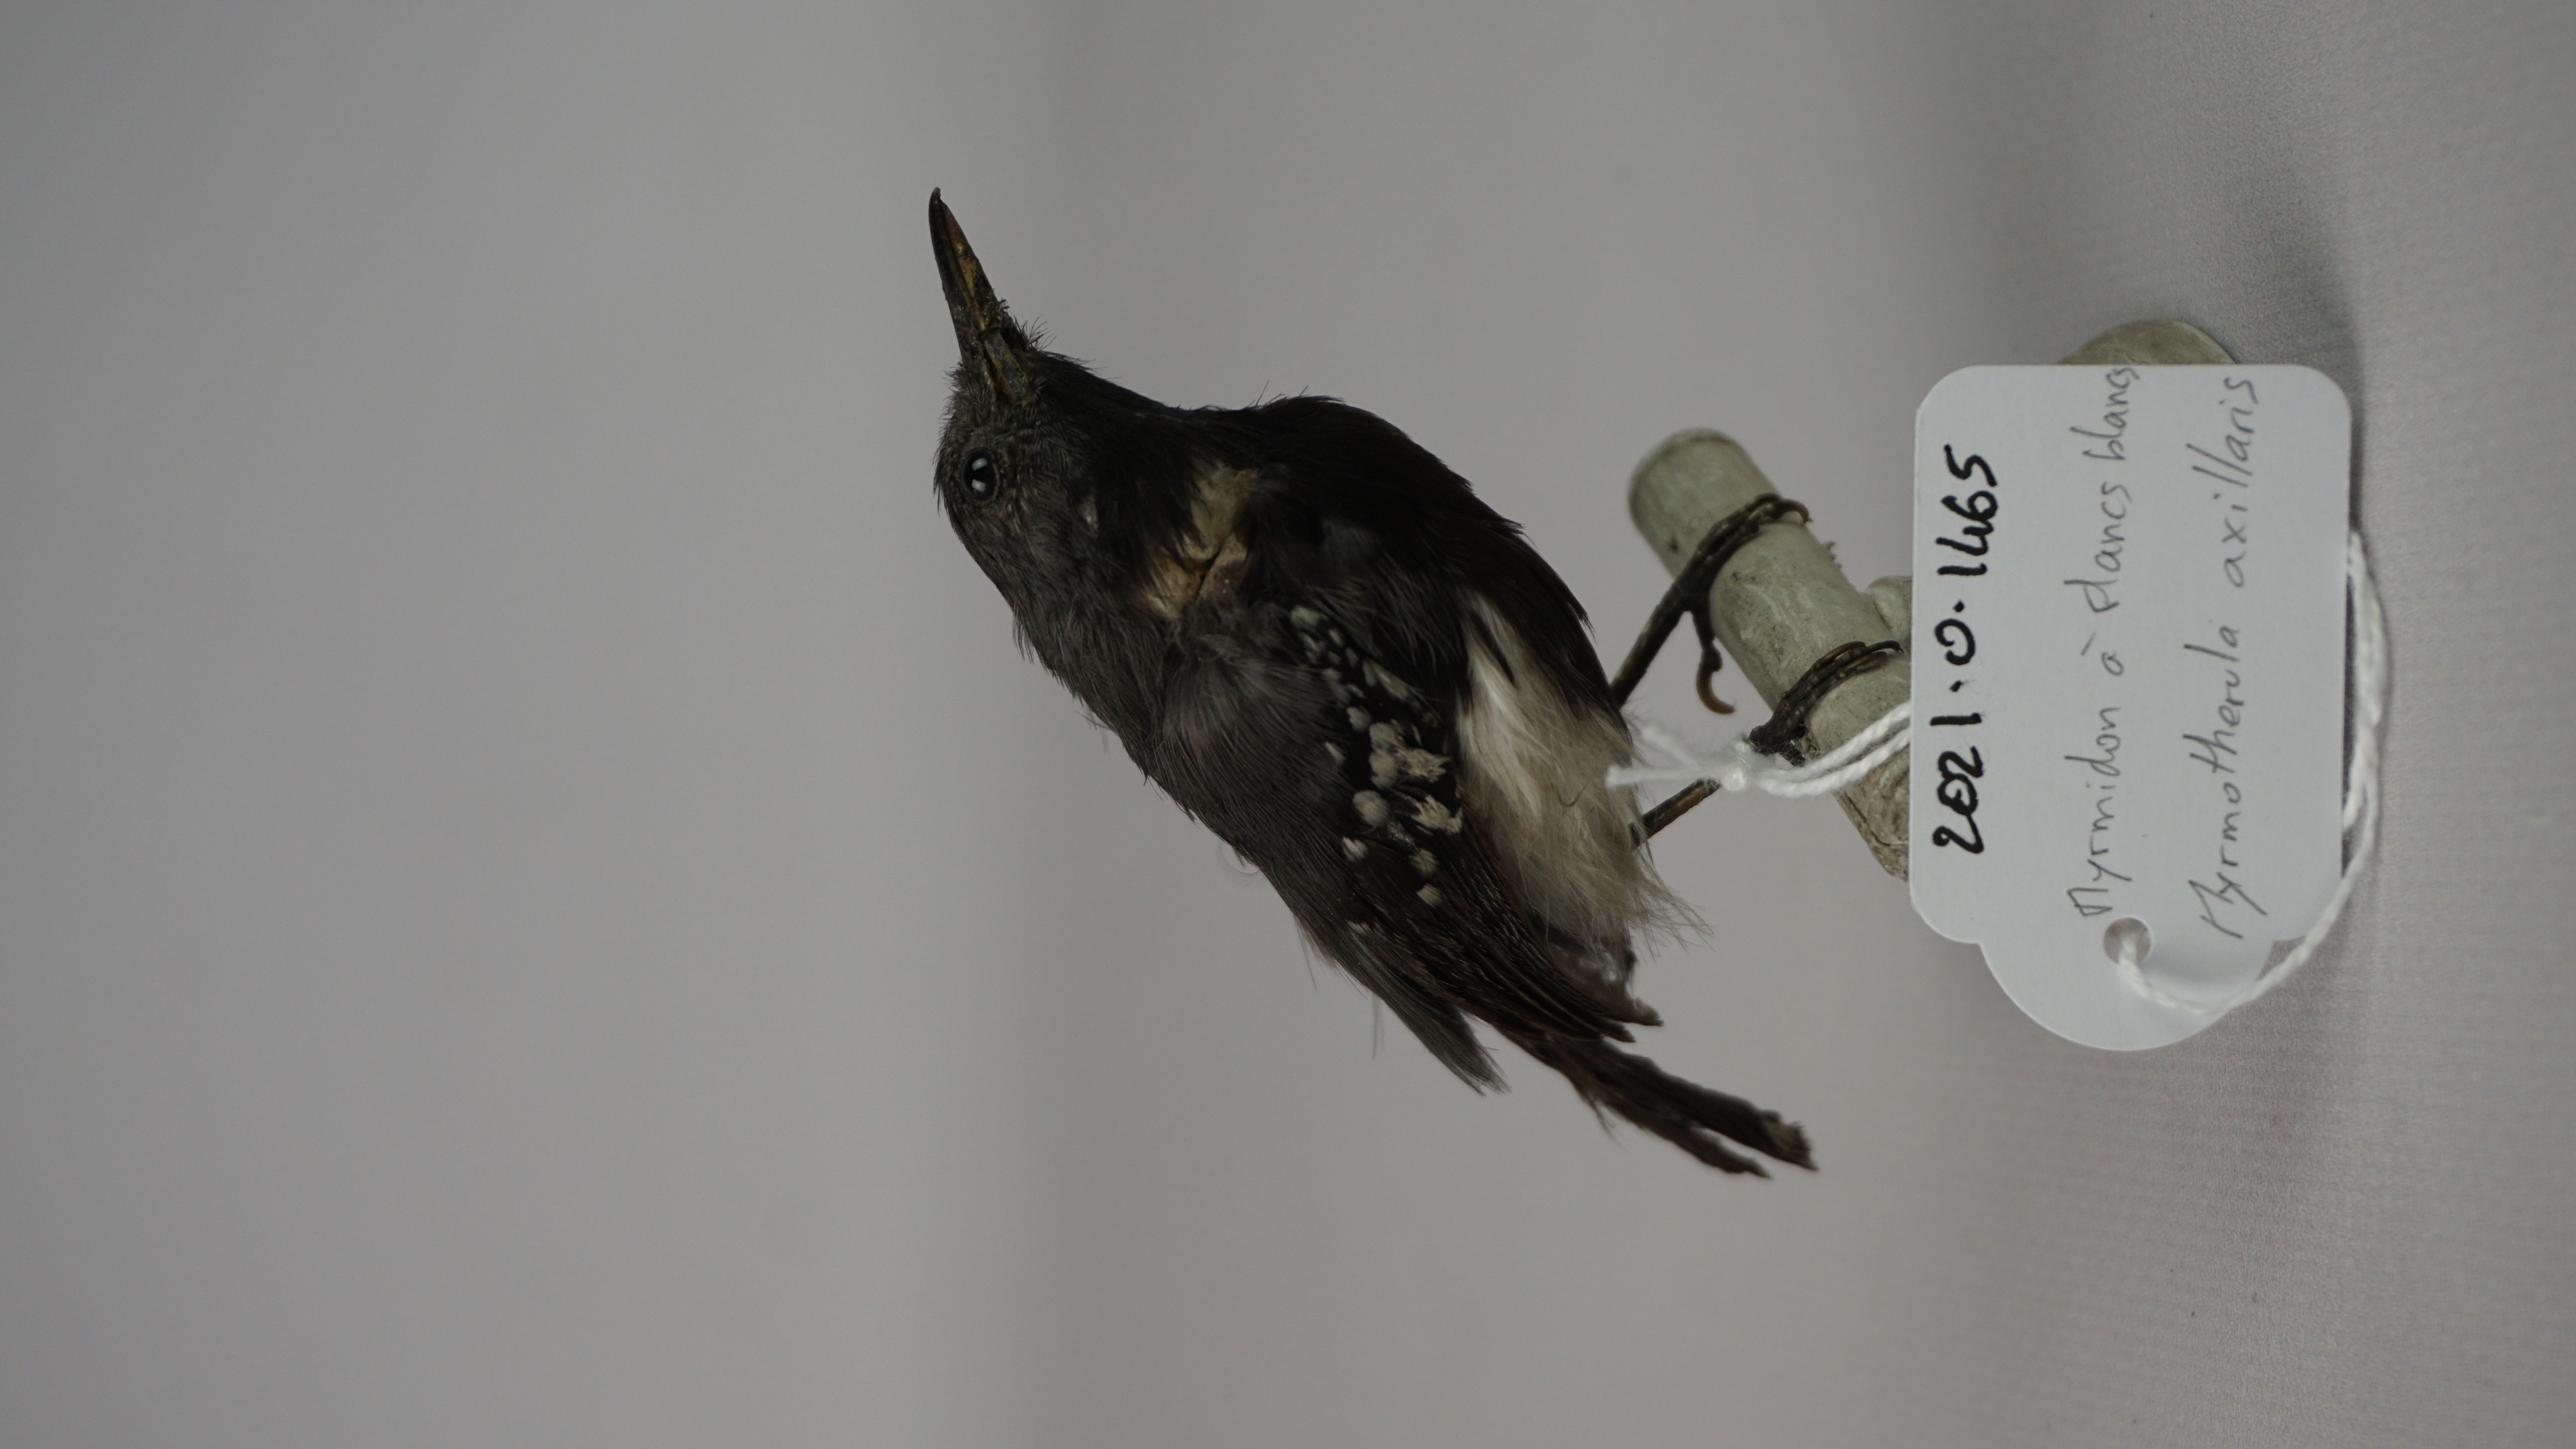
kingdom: Animalia
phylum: Chordata
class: Aves
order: Passeriformes
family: Thamnophilidae
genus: Myrmotherula
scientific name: Myrmotherula axillaris
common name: White-flanked antwren
